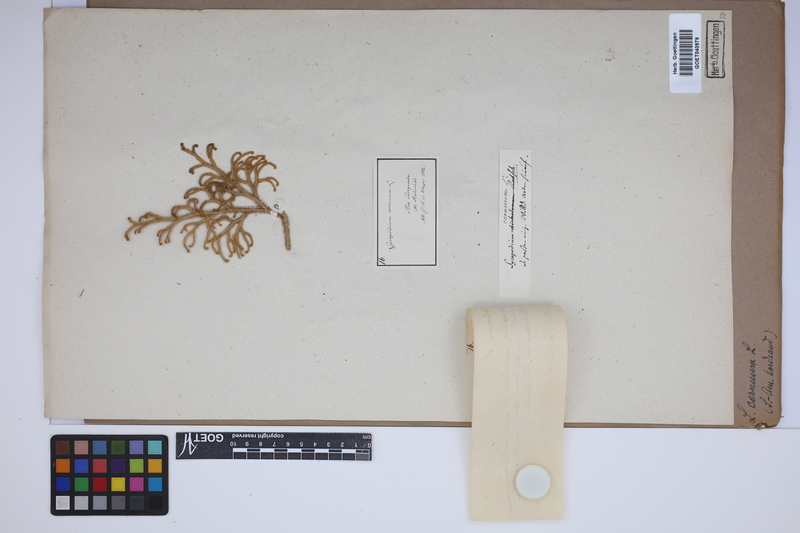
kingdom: Plantae
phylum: Tracheophyta
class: Lycopodiopsida
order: Lycopodiales
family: Lycopodiaceae
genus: Palhinhaea
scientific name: Palhinhaea cernua
